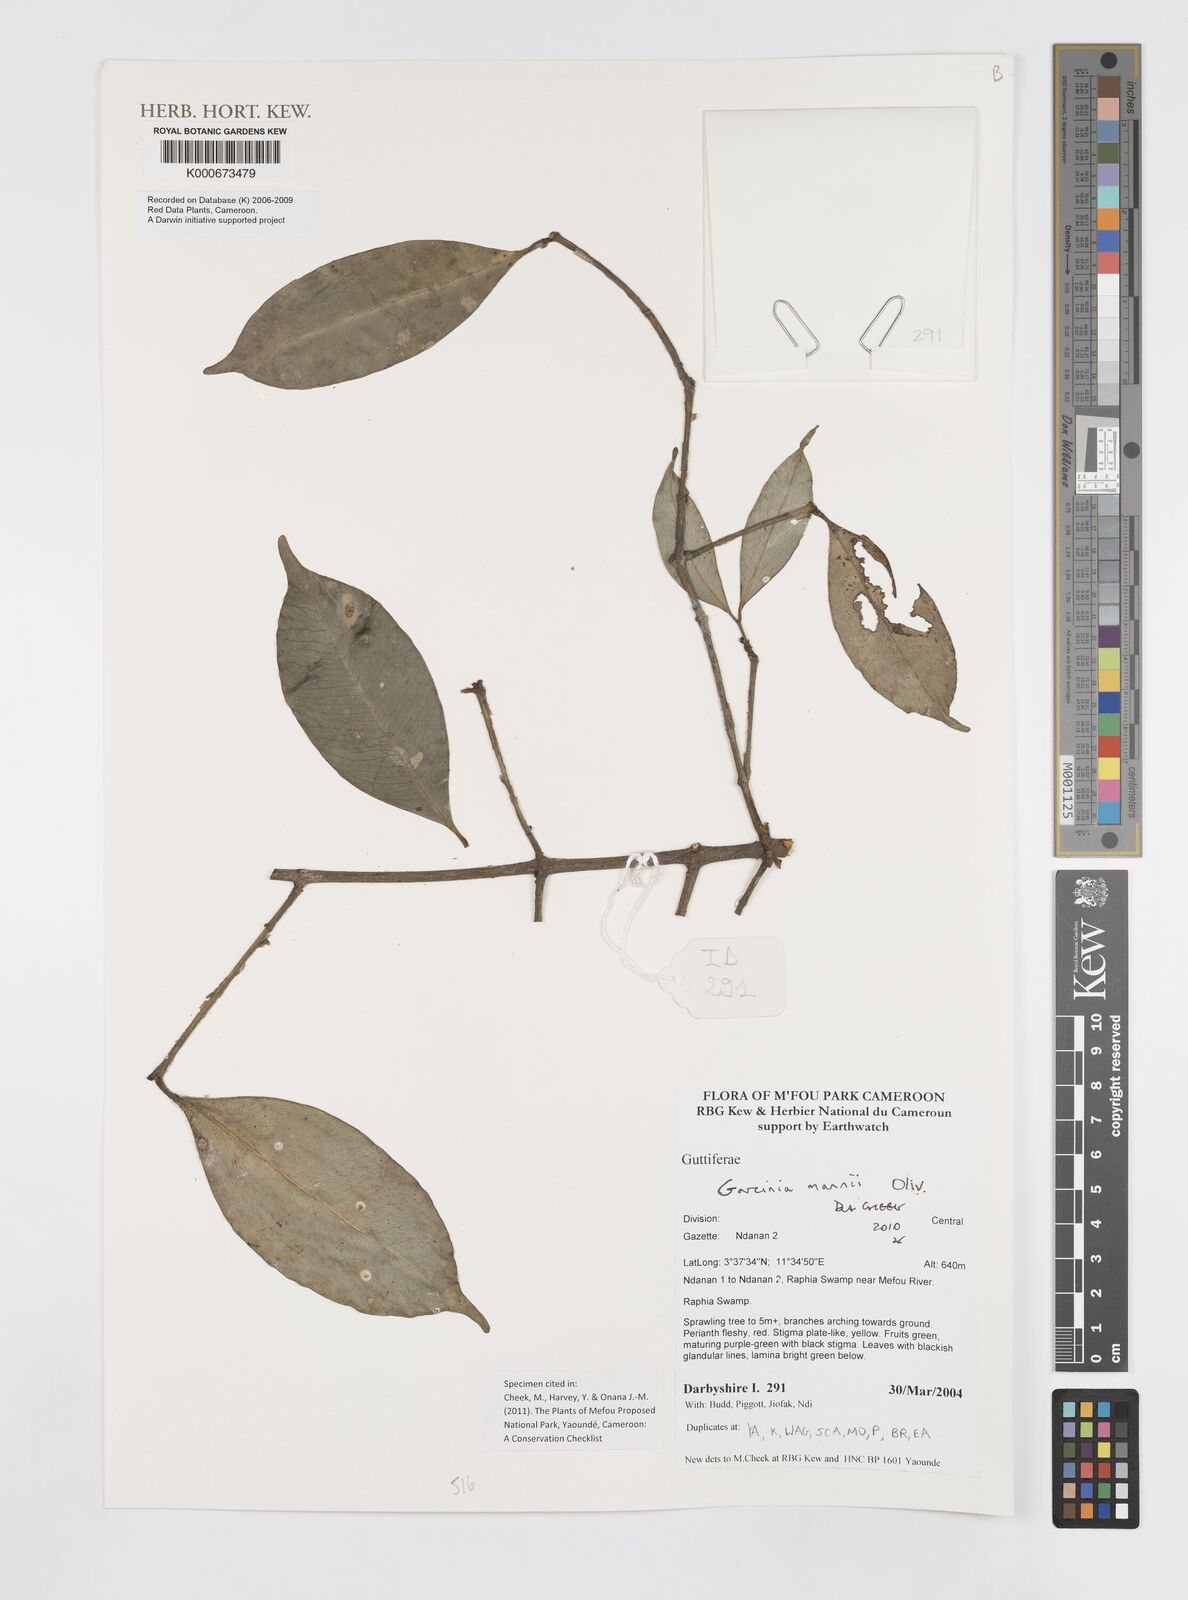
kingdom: Plantae
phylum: Tracheophyta
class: Magnoliopsida
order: Malpighiales
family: Clusiaceae
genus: Garcinia
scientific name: Garcinia mannii
